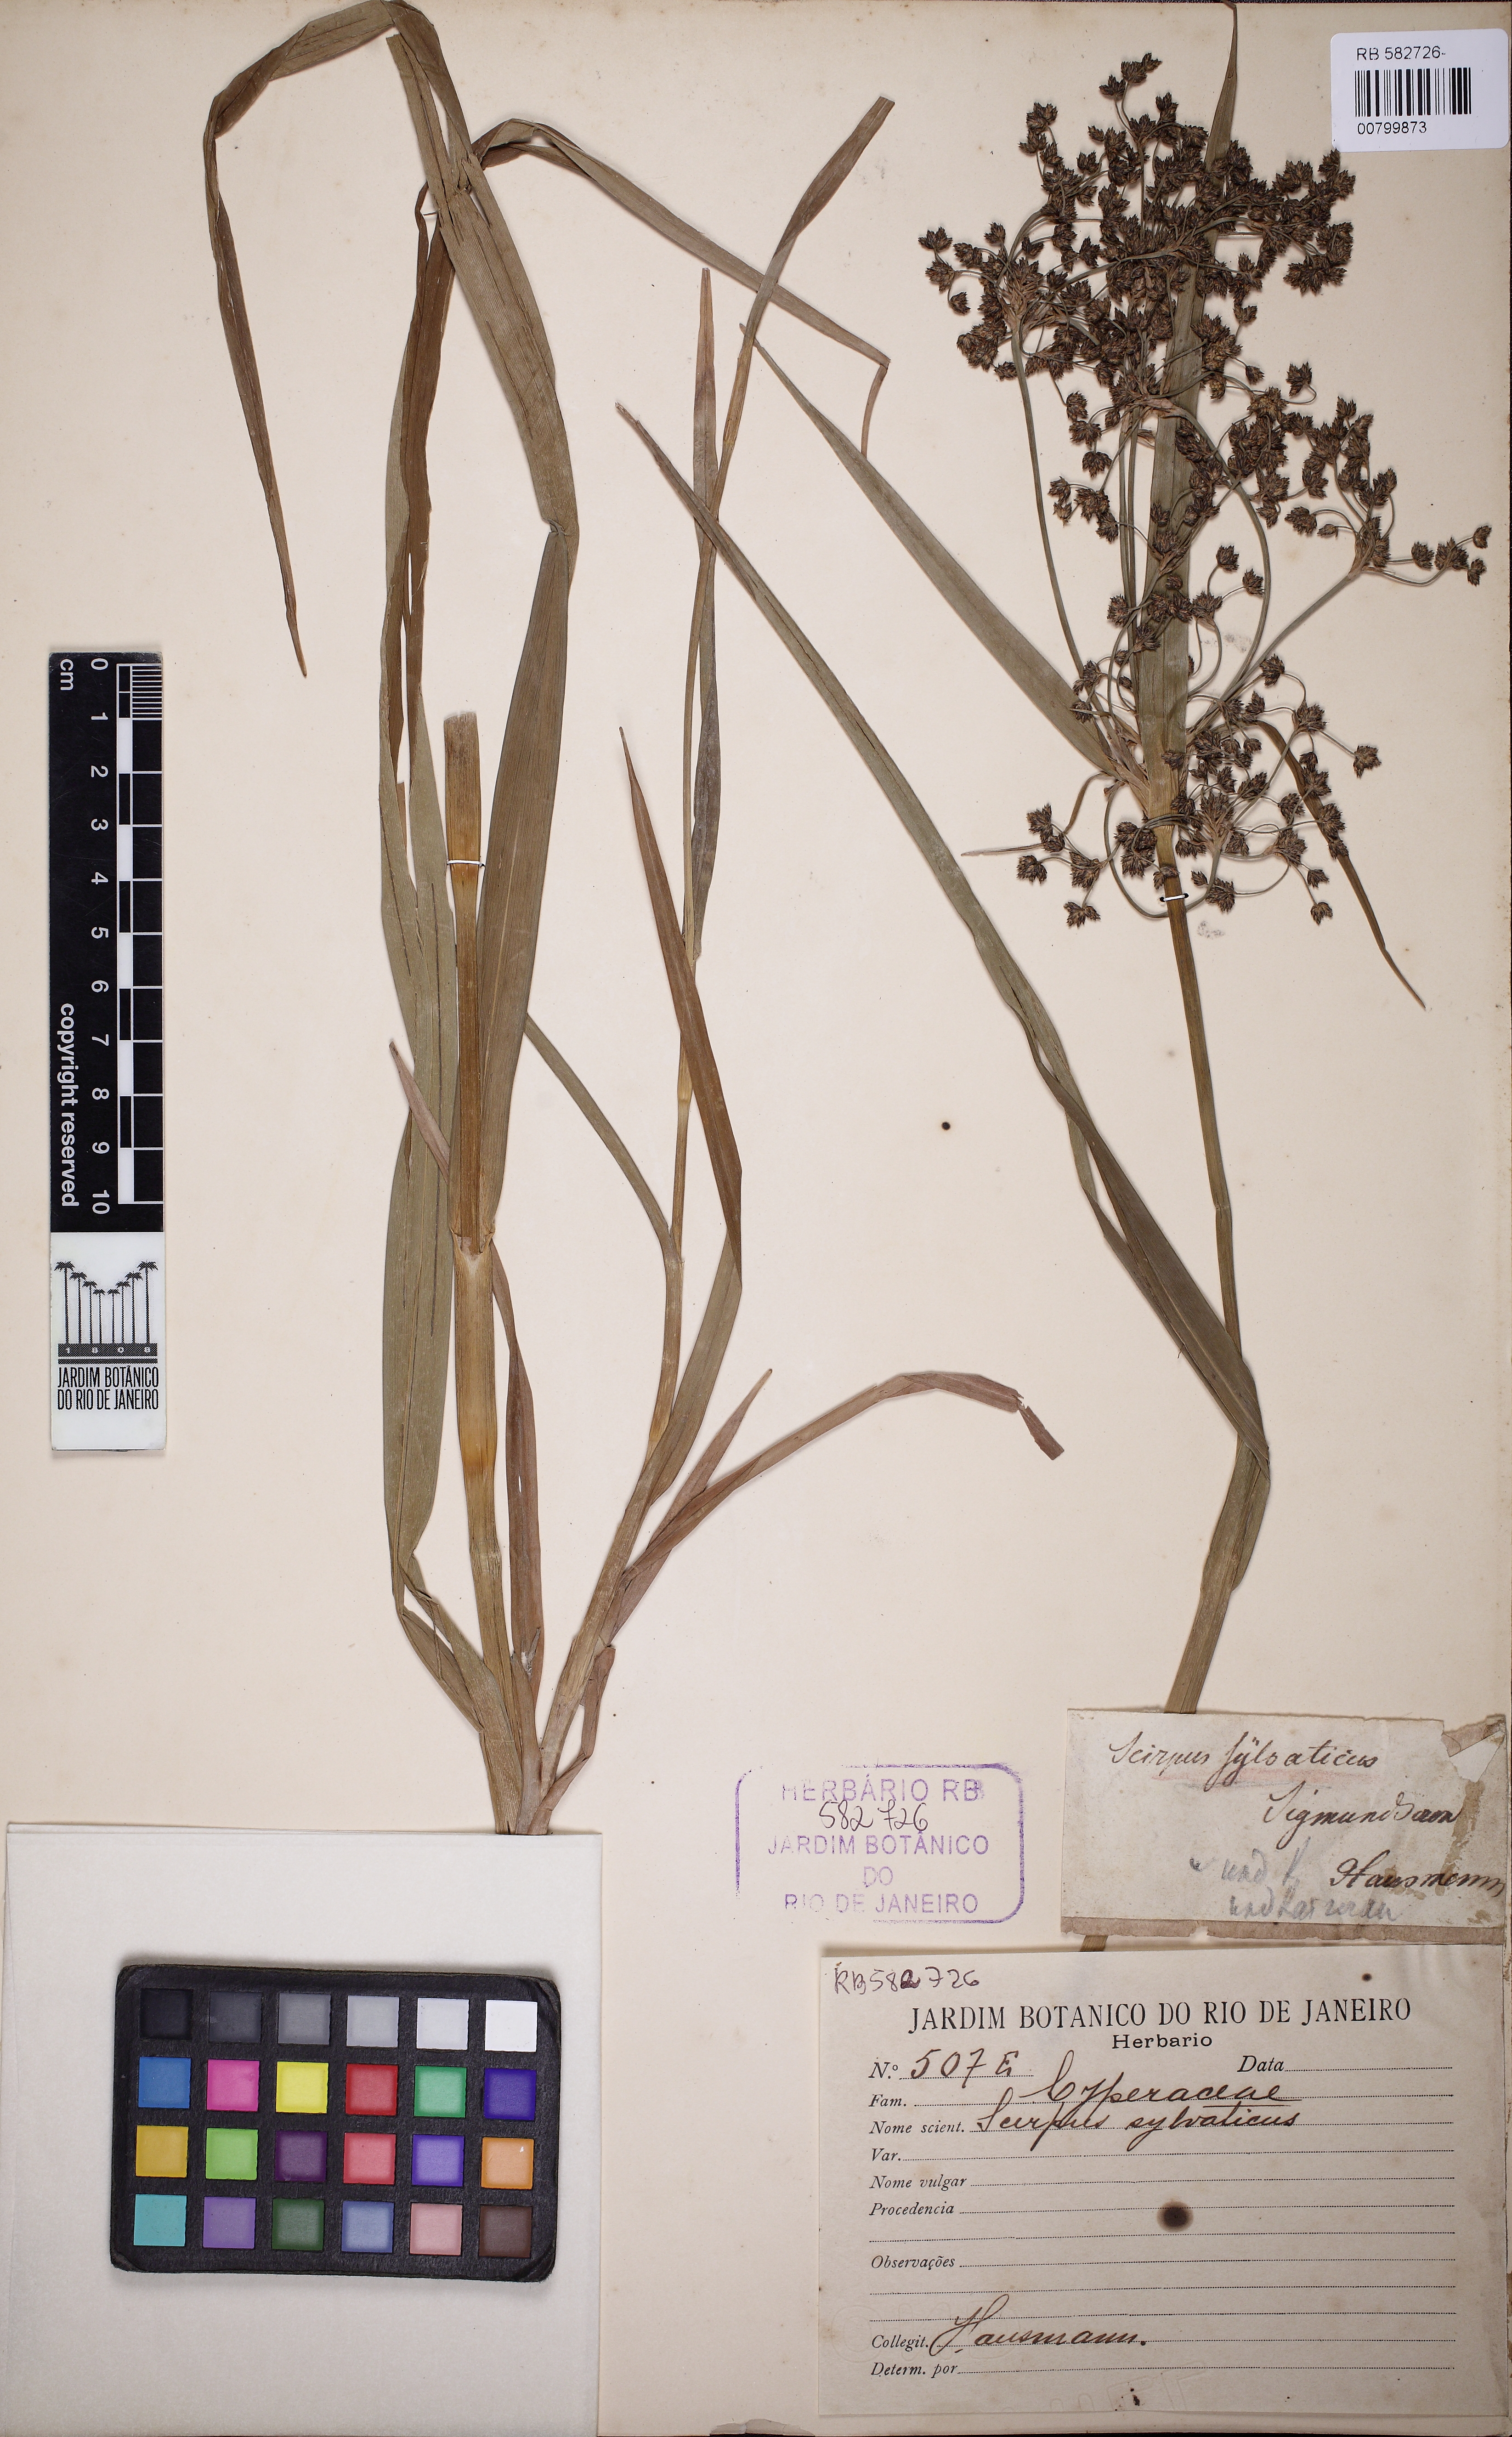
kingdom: Plantae
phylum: Tracheophyta
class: Liliopsida
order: Poales
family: Cyperaceae
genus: Scirpus
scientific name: Scirpus sylvaticus
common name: Wood club-rush
